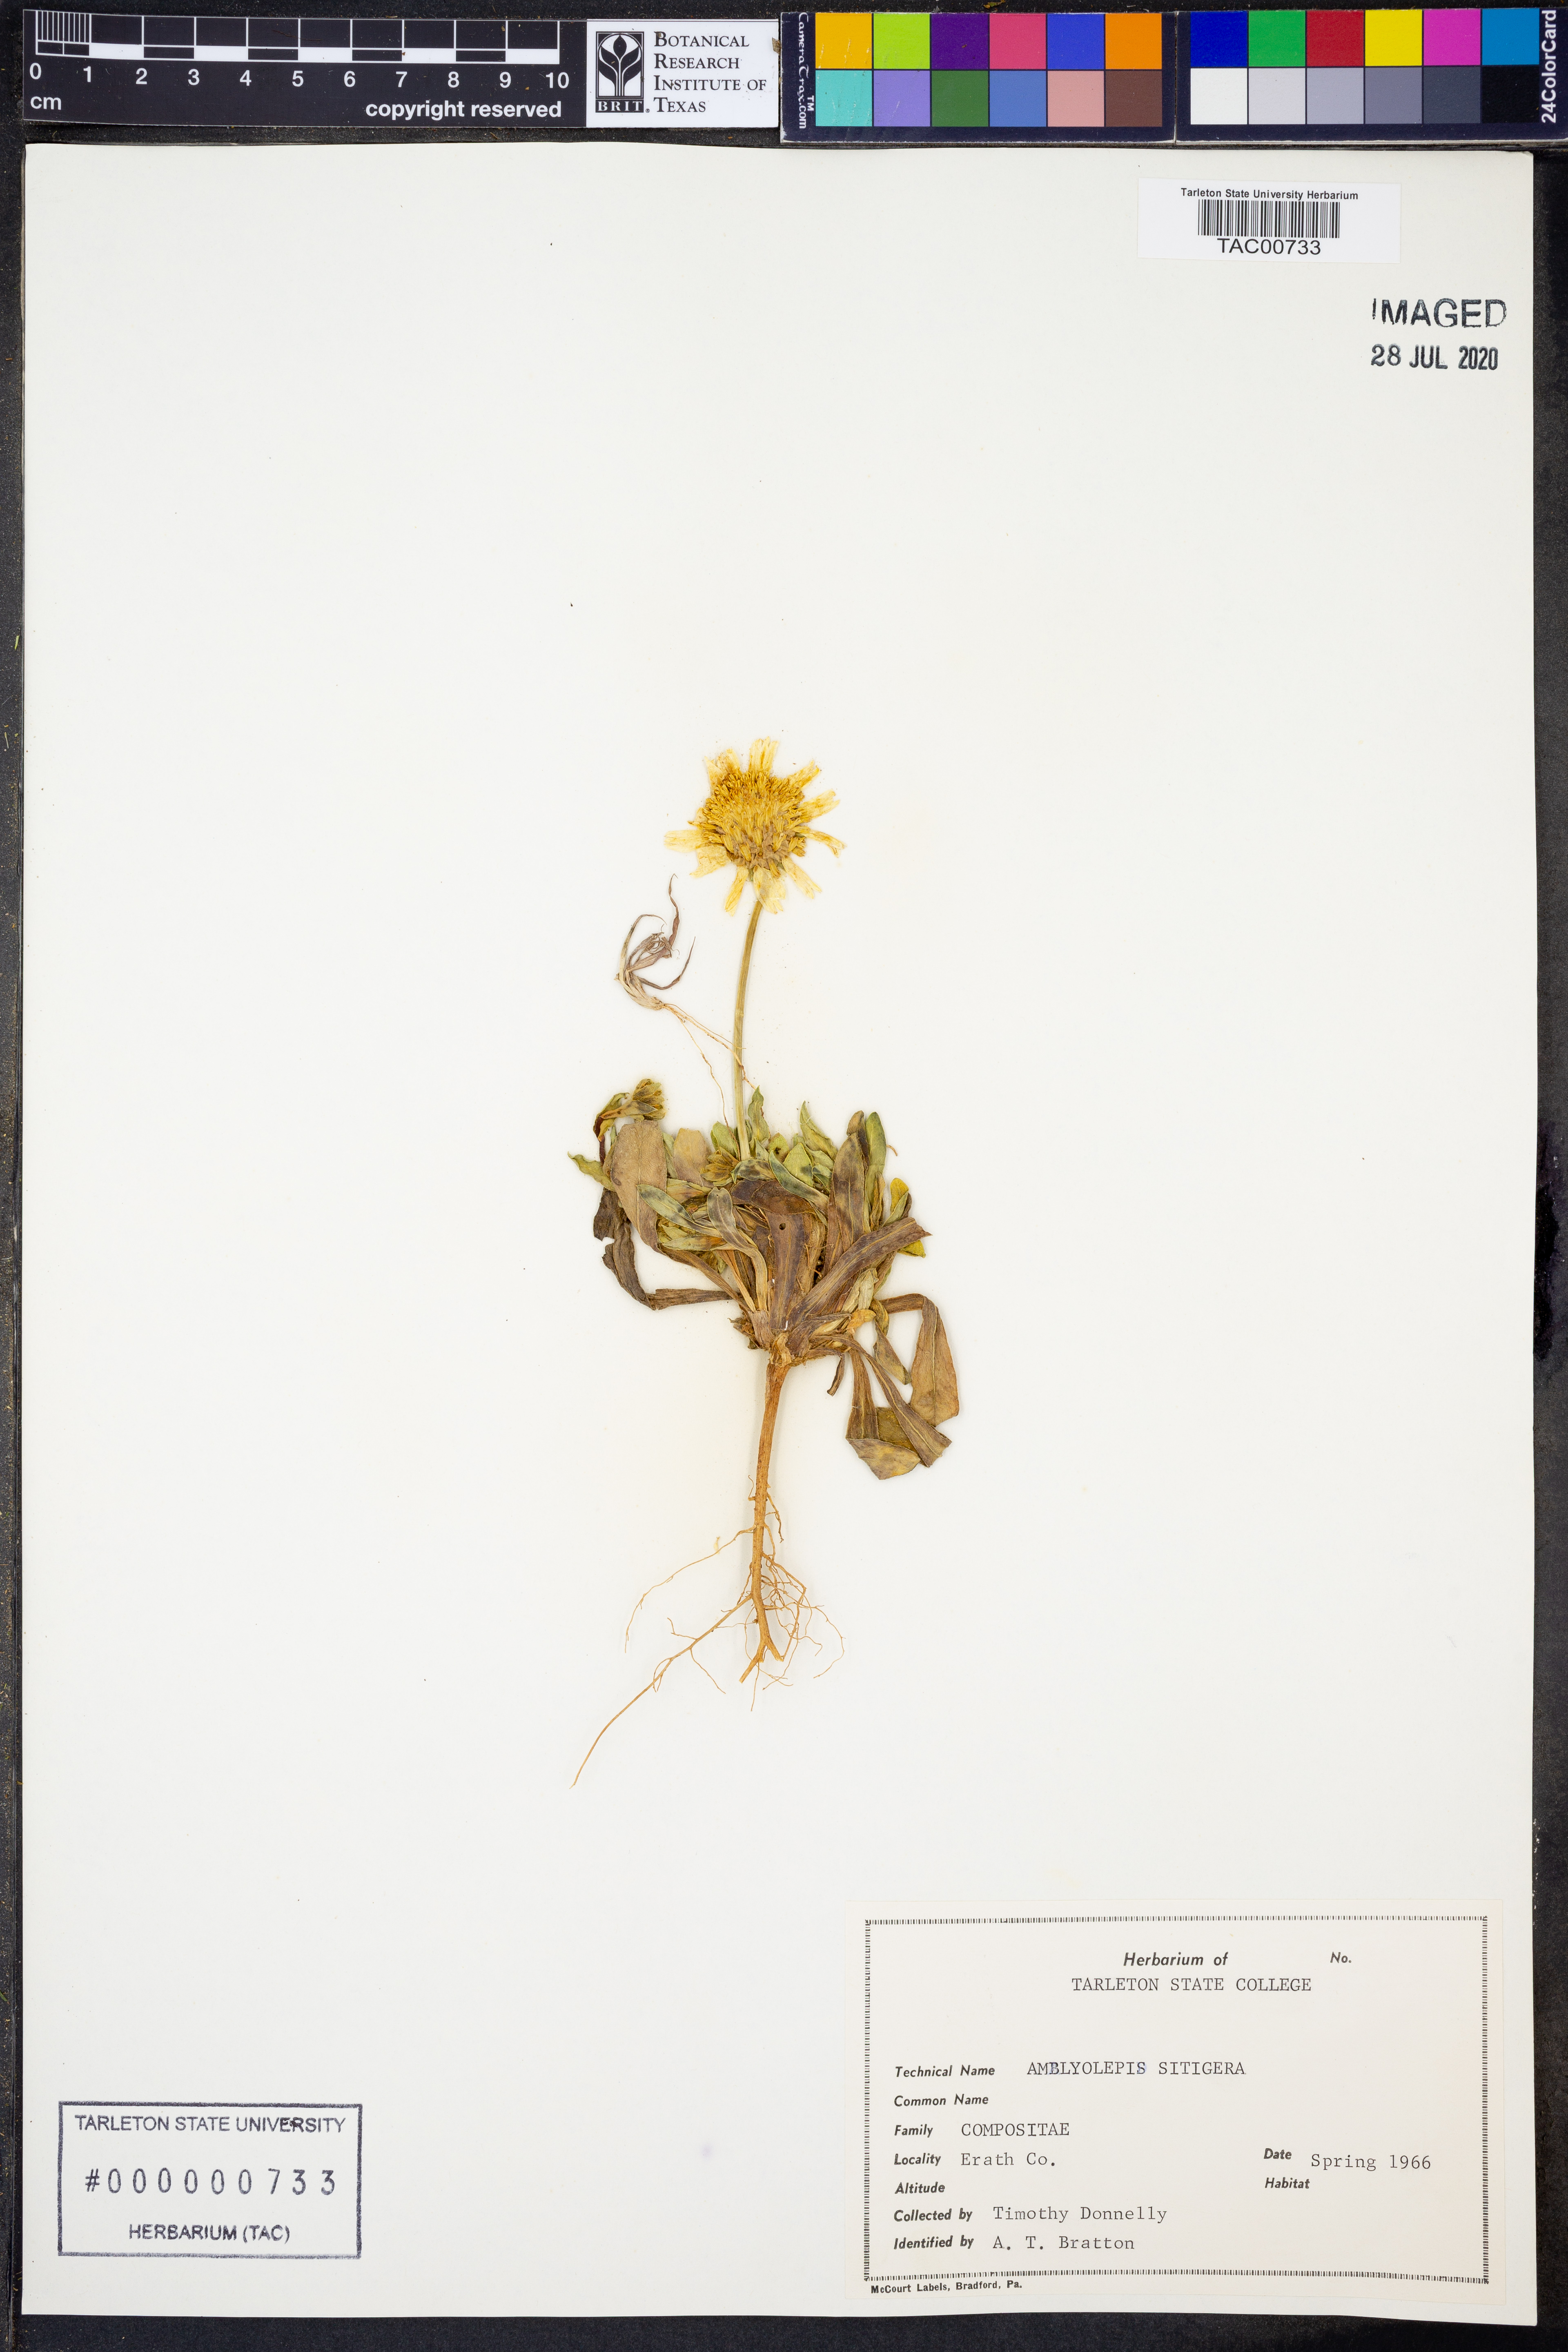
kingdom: Plantae
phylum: Tracheophyta
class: Magnoliopsida
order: Asterales
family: Asteraceae
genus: Amblyolepis
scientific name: Amblyolepis setigera
